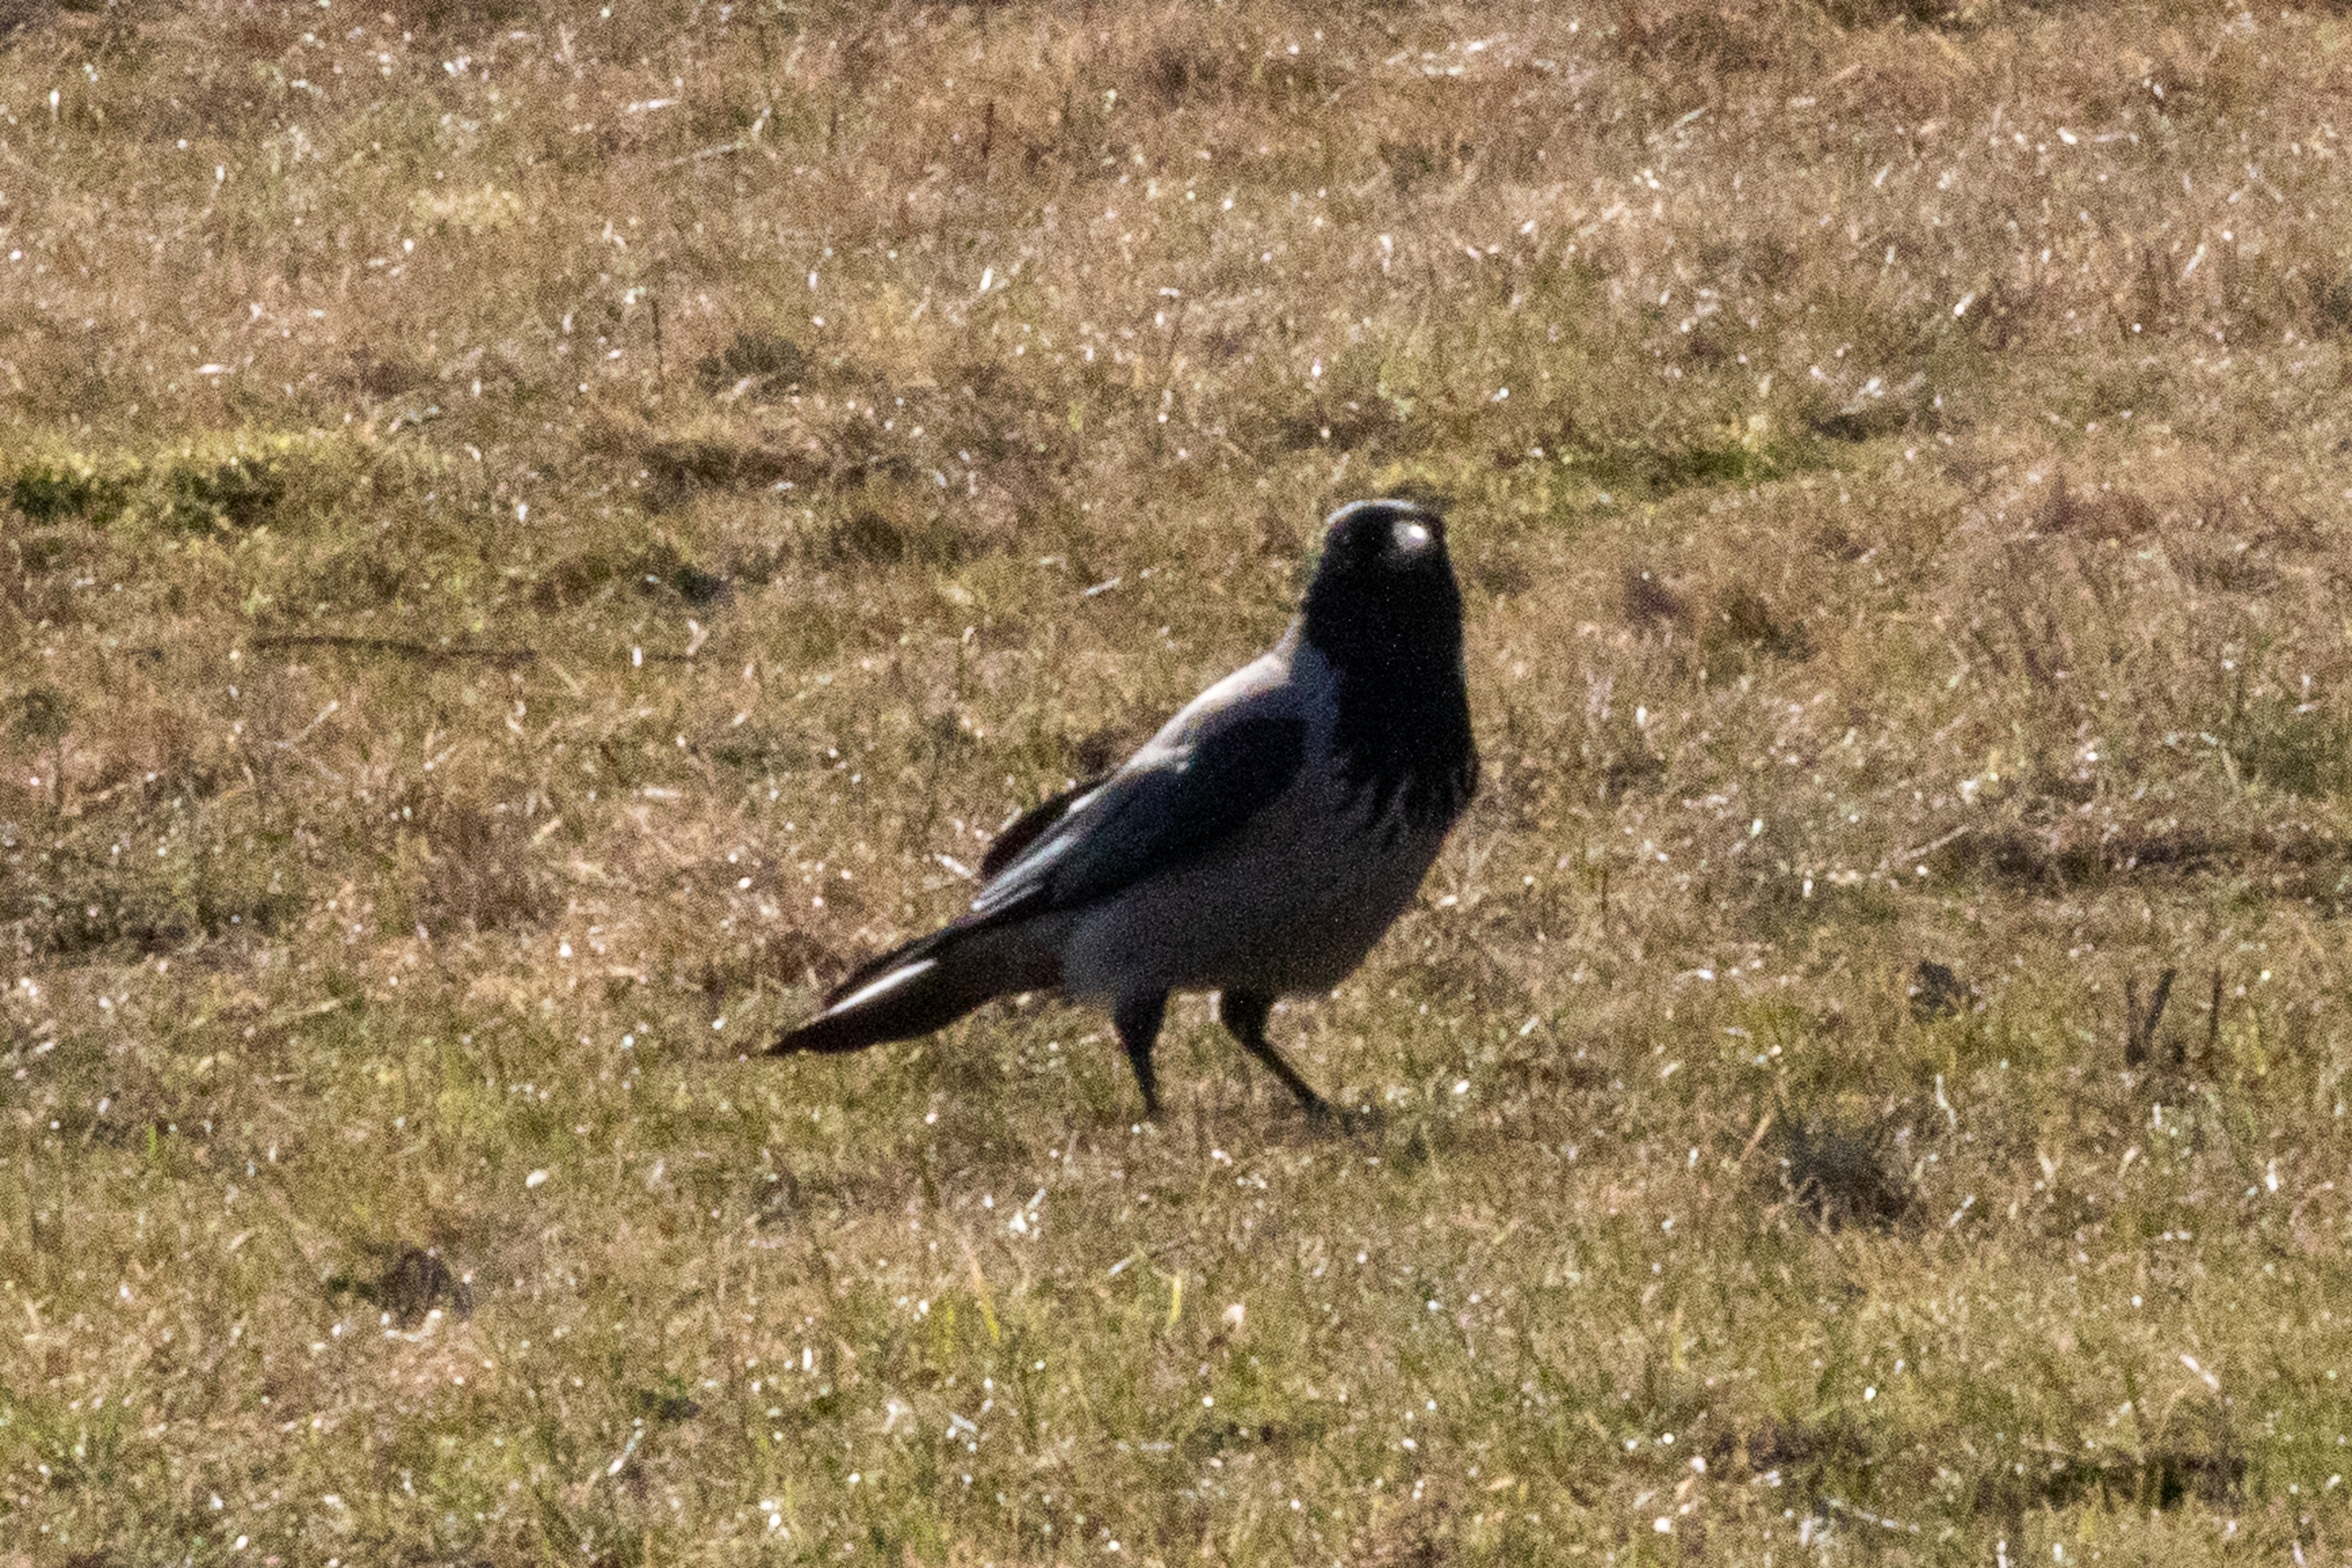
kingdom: Animalia
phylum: Chordata
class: Aves
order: Passeriformes
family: Corvidae
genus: Corvus
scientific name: Corvus cornix
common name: Gråkrage
